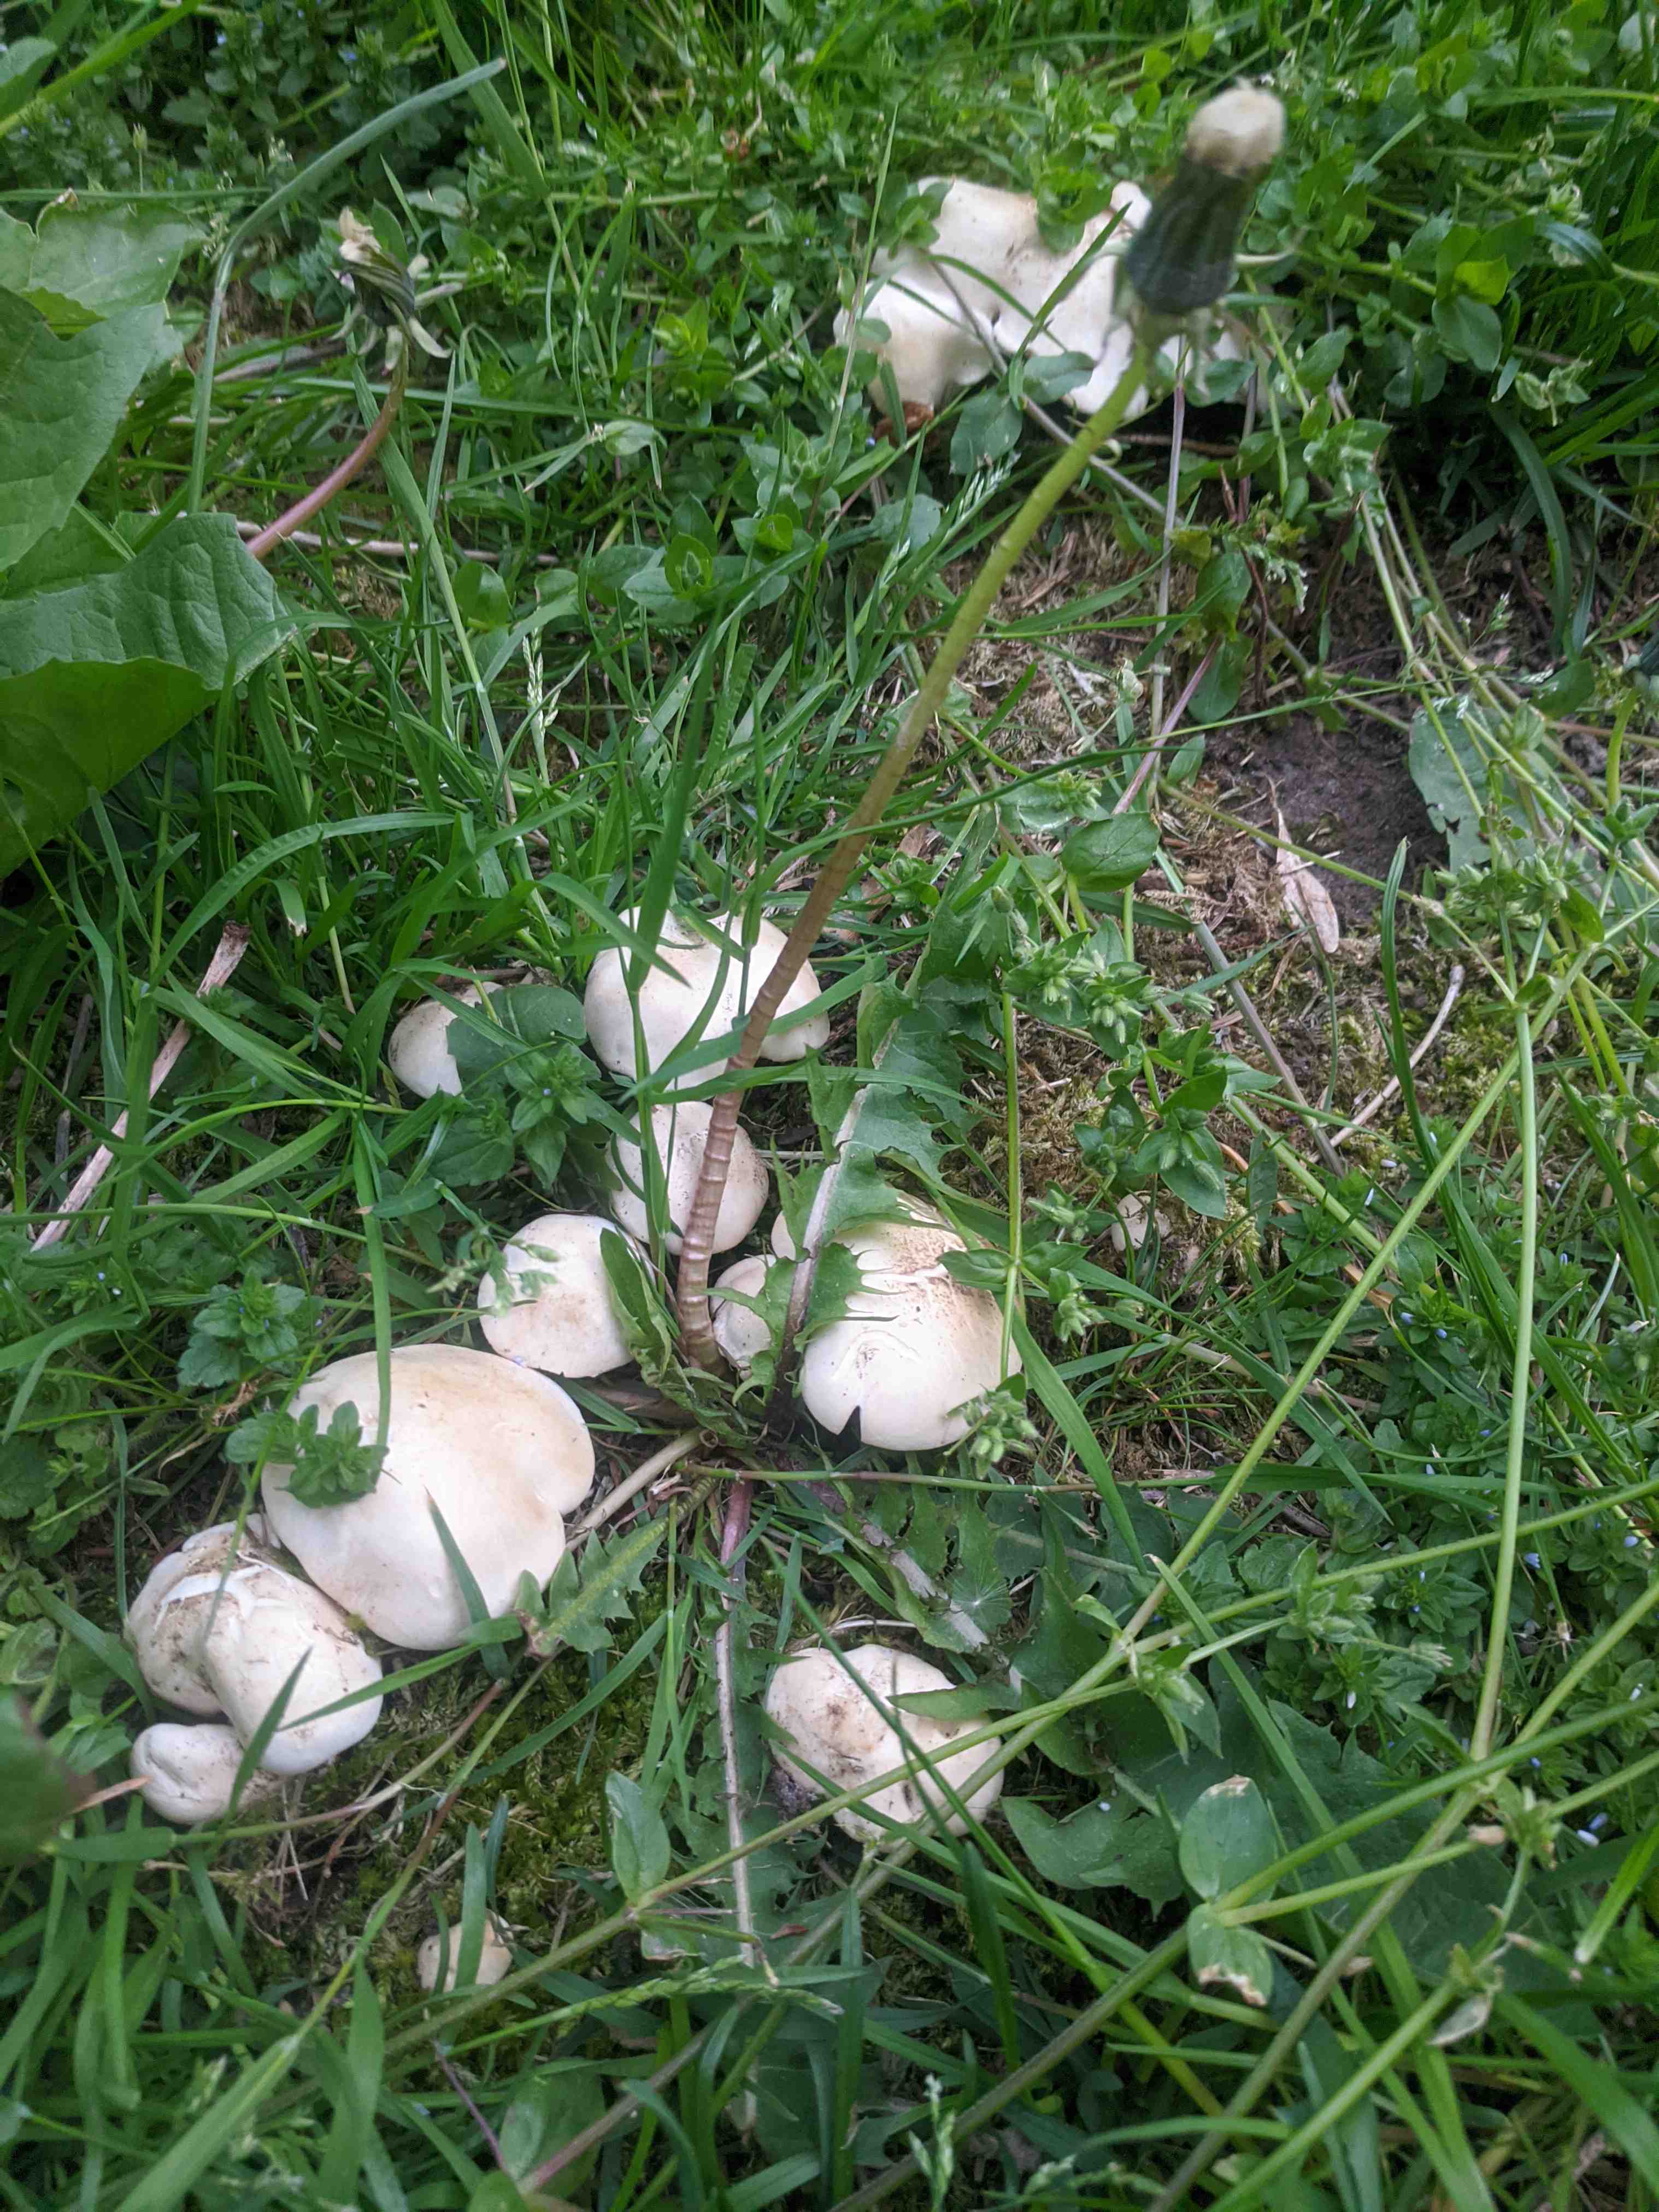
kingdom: Fungi
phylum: Basidiomycota
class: Agaricomycetes
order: Agaricales
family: Lyophyllaceae
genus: Calocybe
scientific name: Calocybe gambosa
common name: vårmusseron
